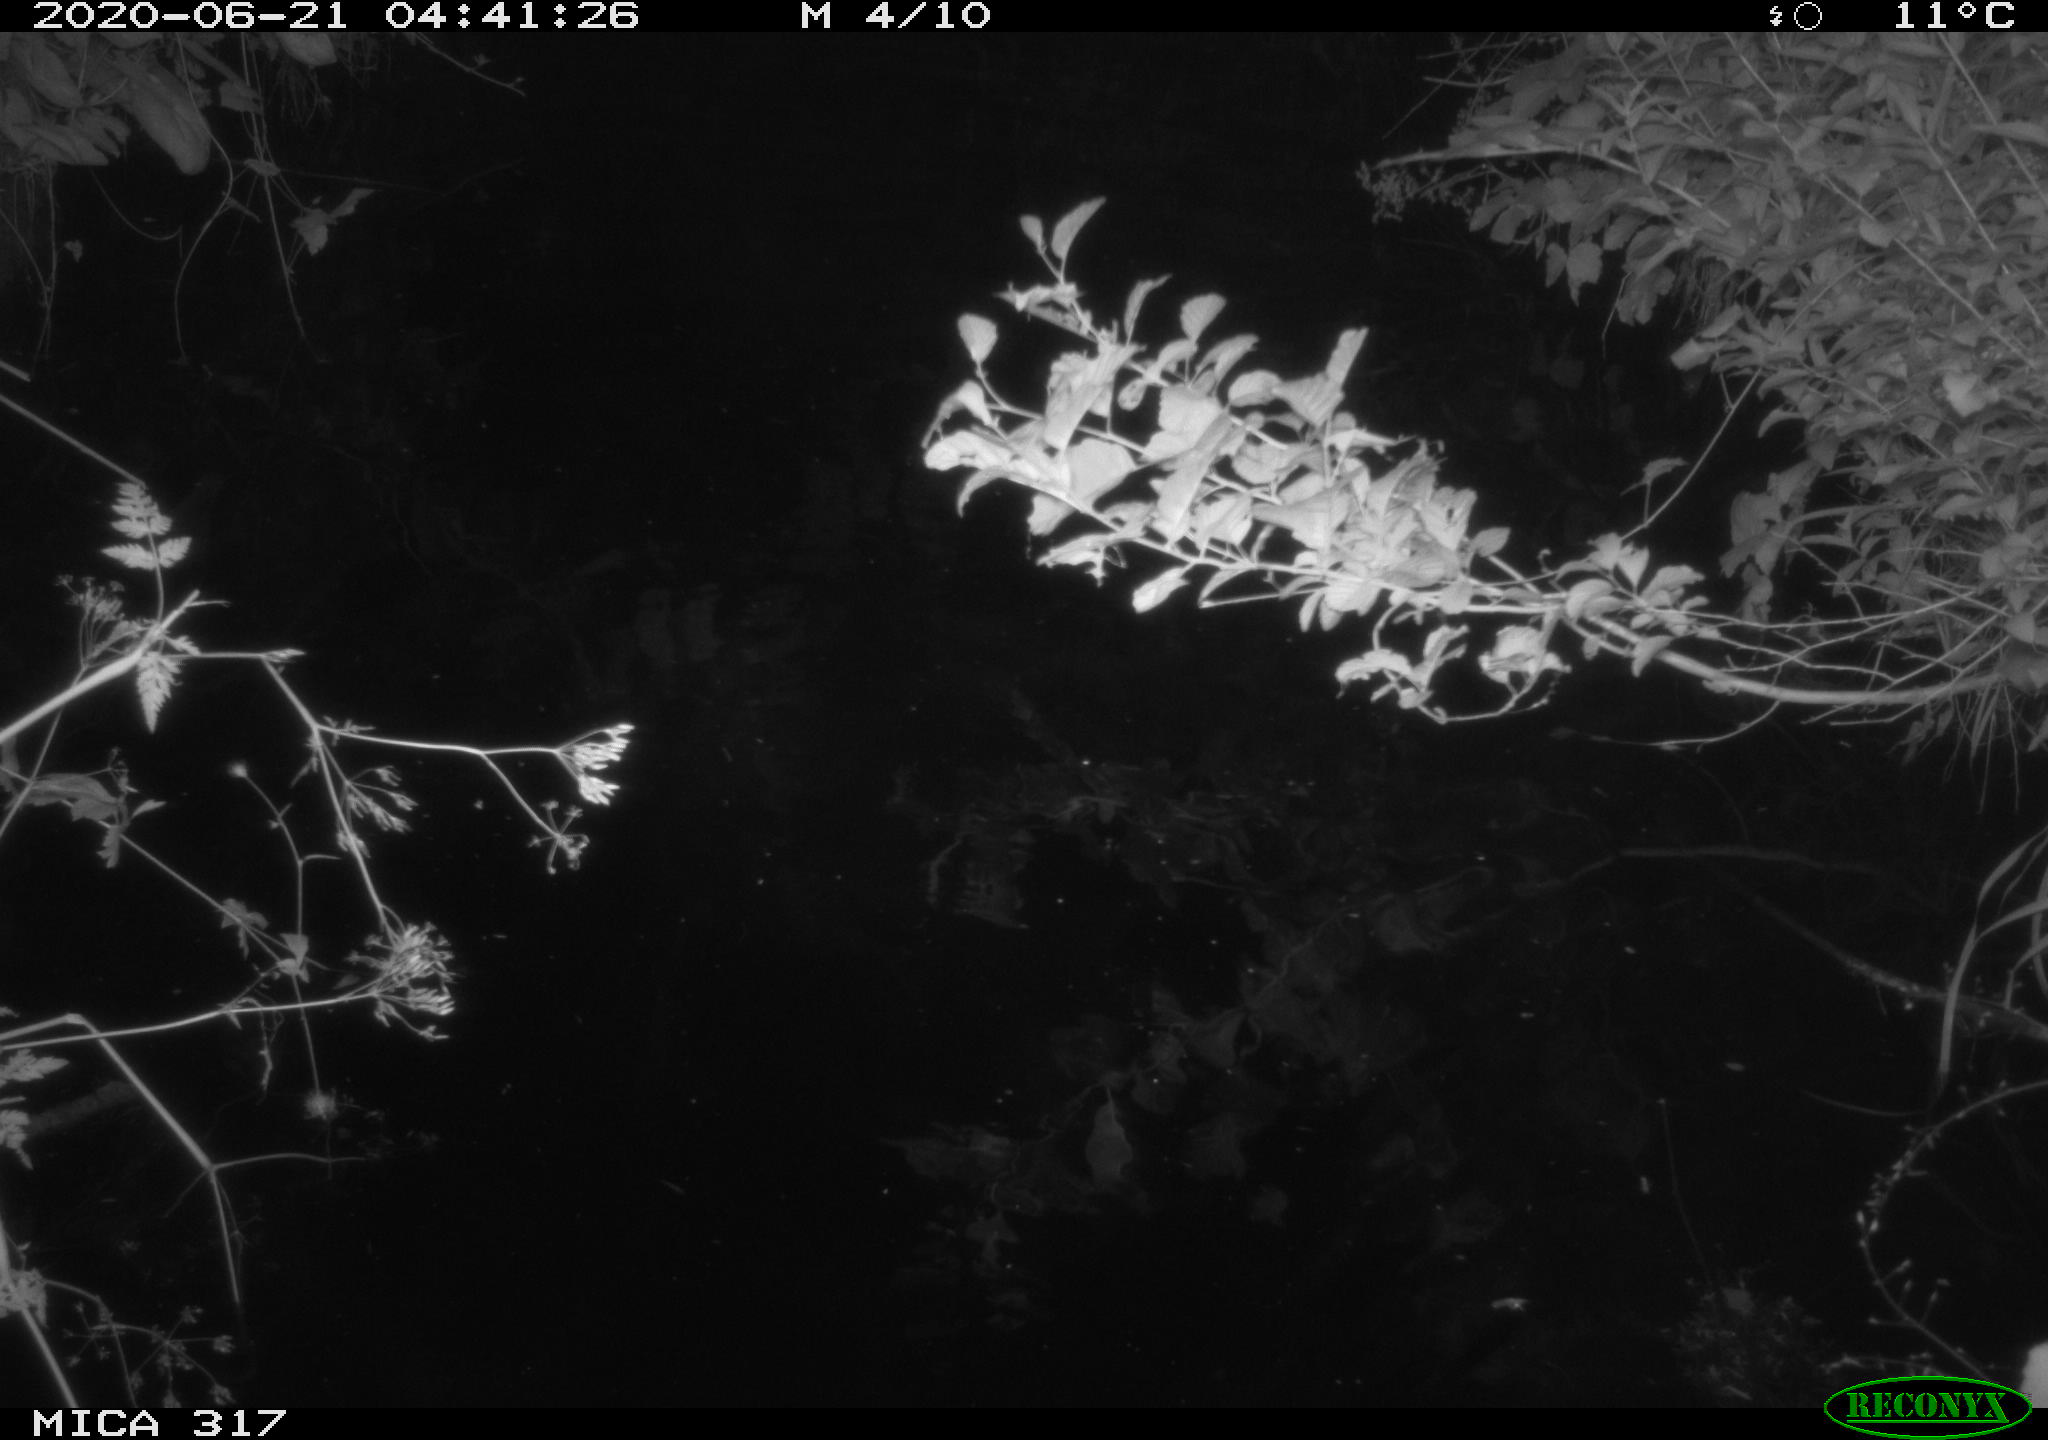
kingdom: Animalia
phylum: Chordata
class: Aves
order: Anseriformes
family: Anatidae
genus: Anas
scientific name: Anas platyrhynchos
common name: Mallard
